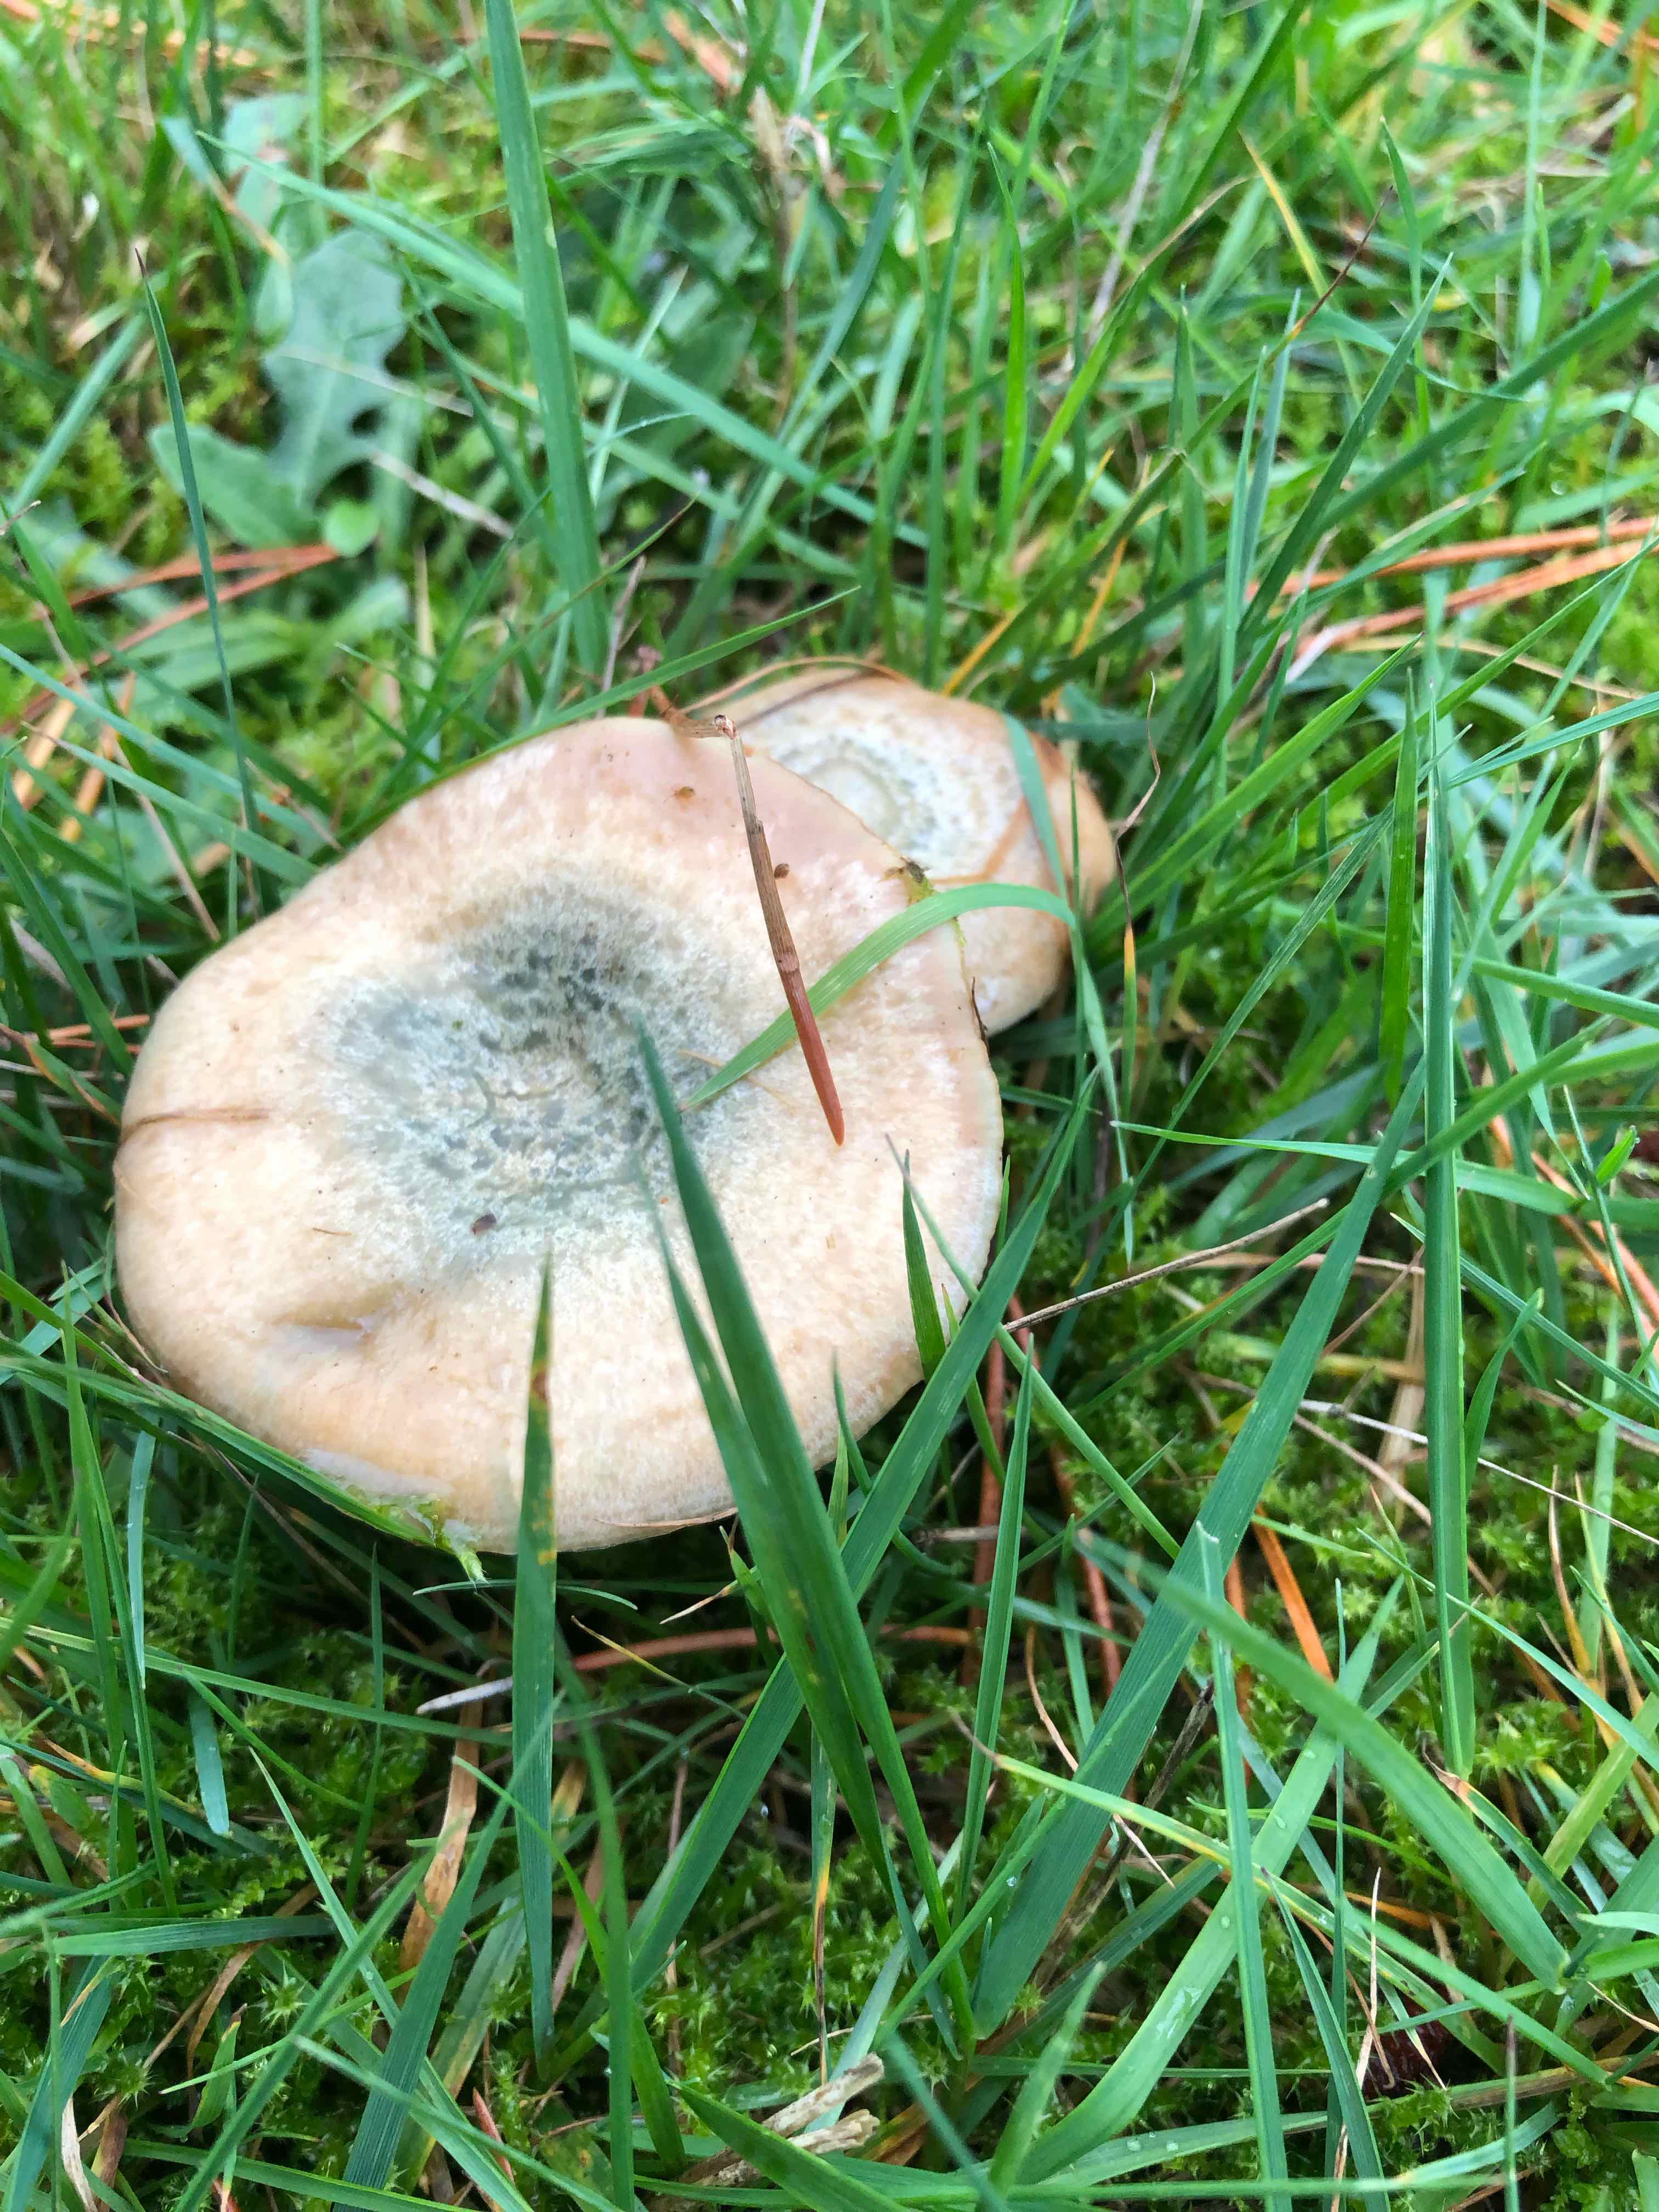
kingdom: Fungi
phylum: Basidiomycota
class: Agaricomycetes
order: Russulales
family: Russulaceae
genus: Lactarius
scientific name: Lactarius quieticolor
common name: tvefarvet mælkehat
